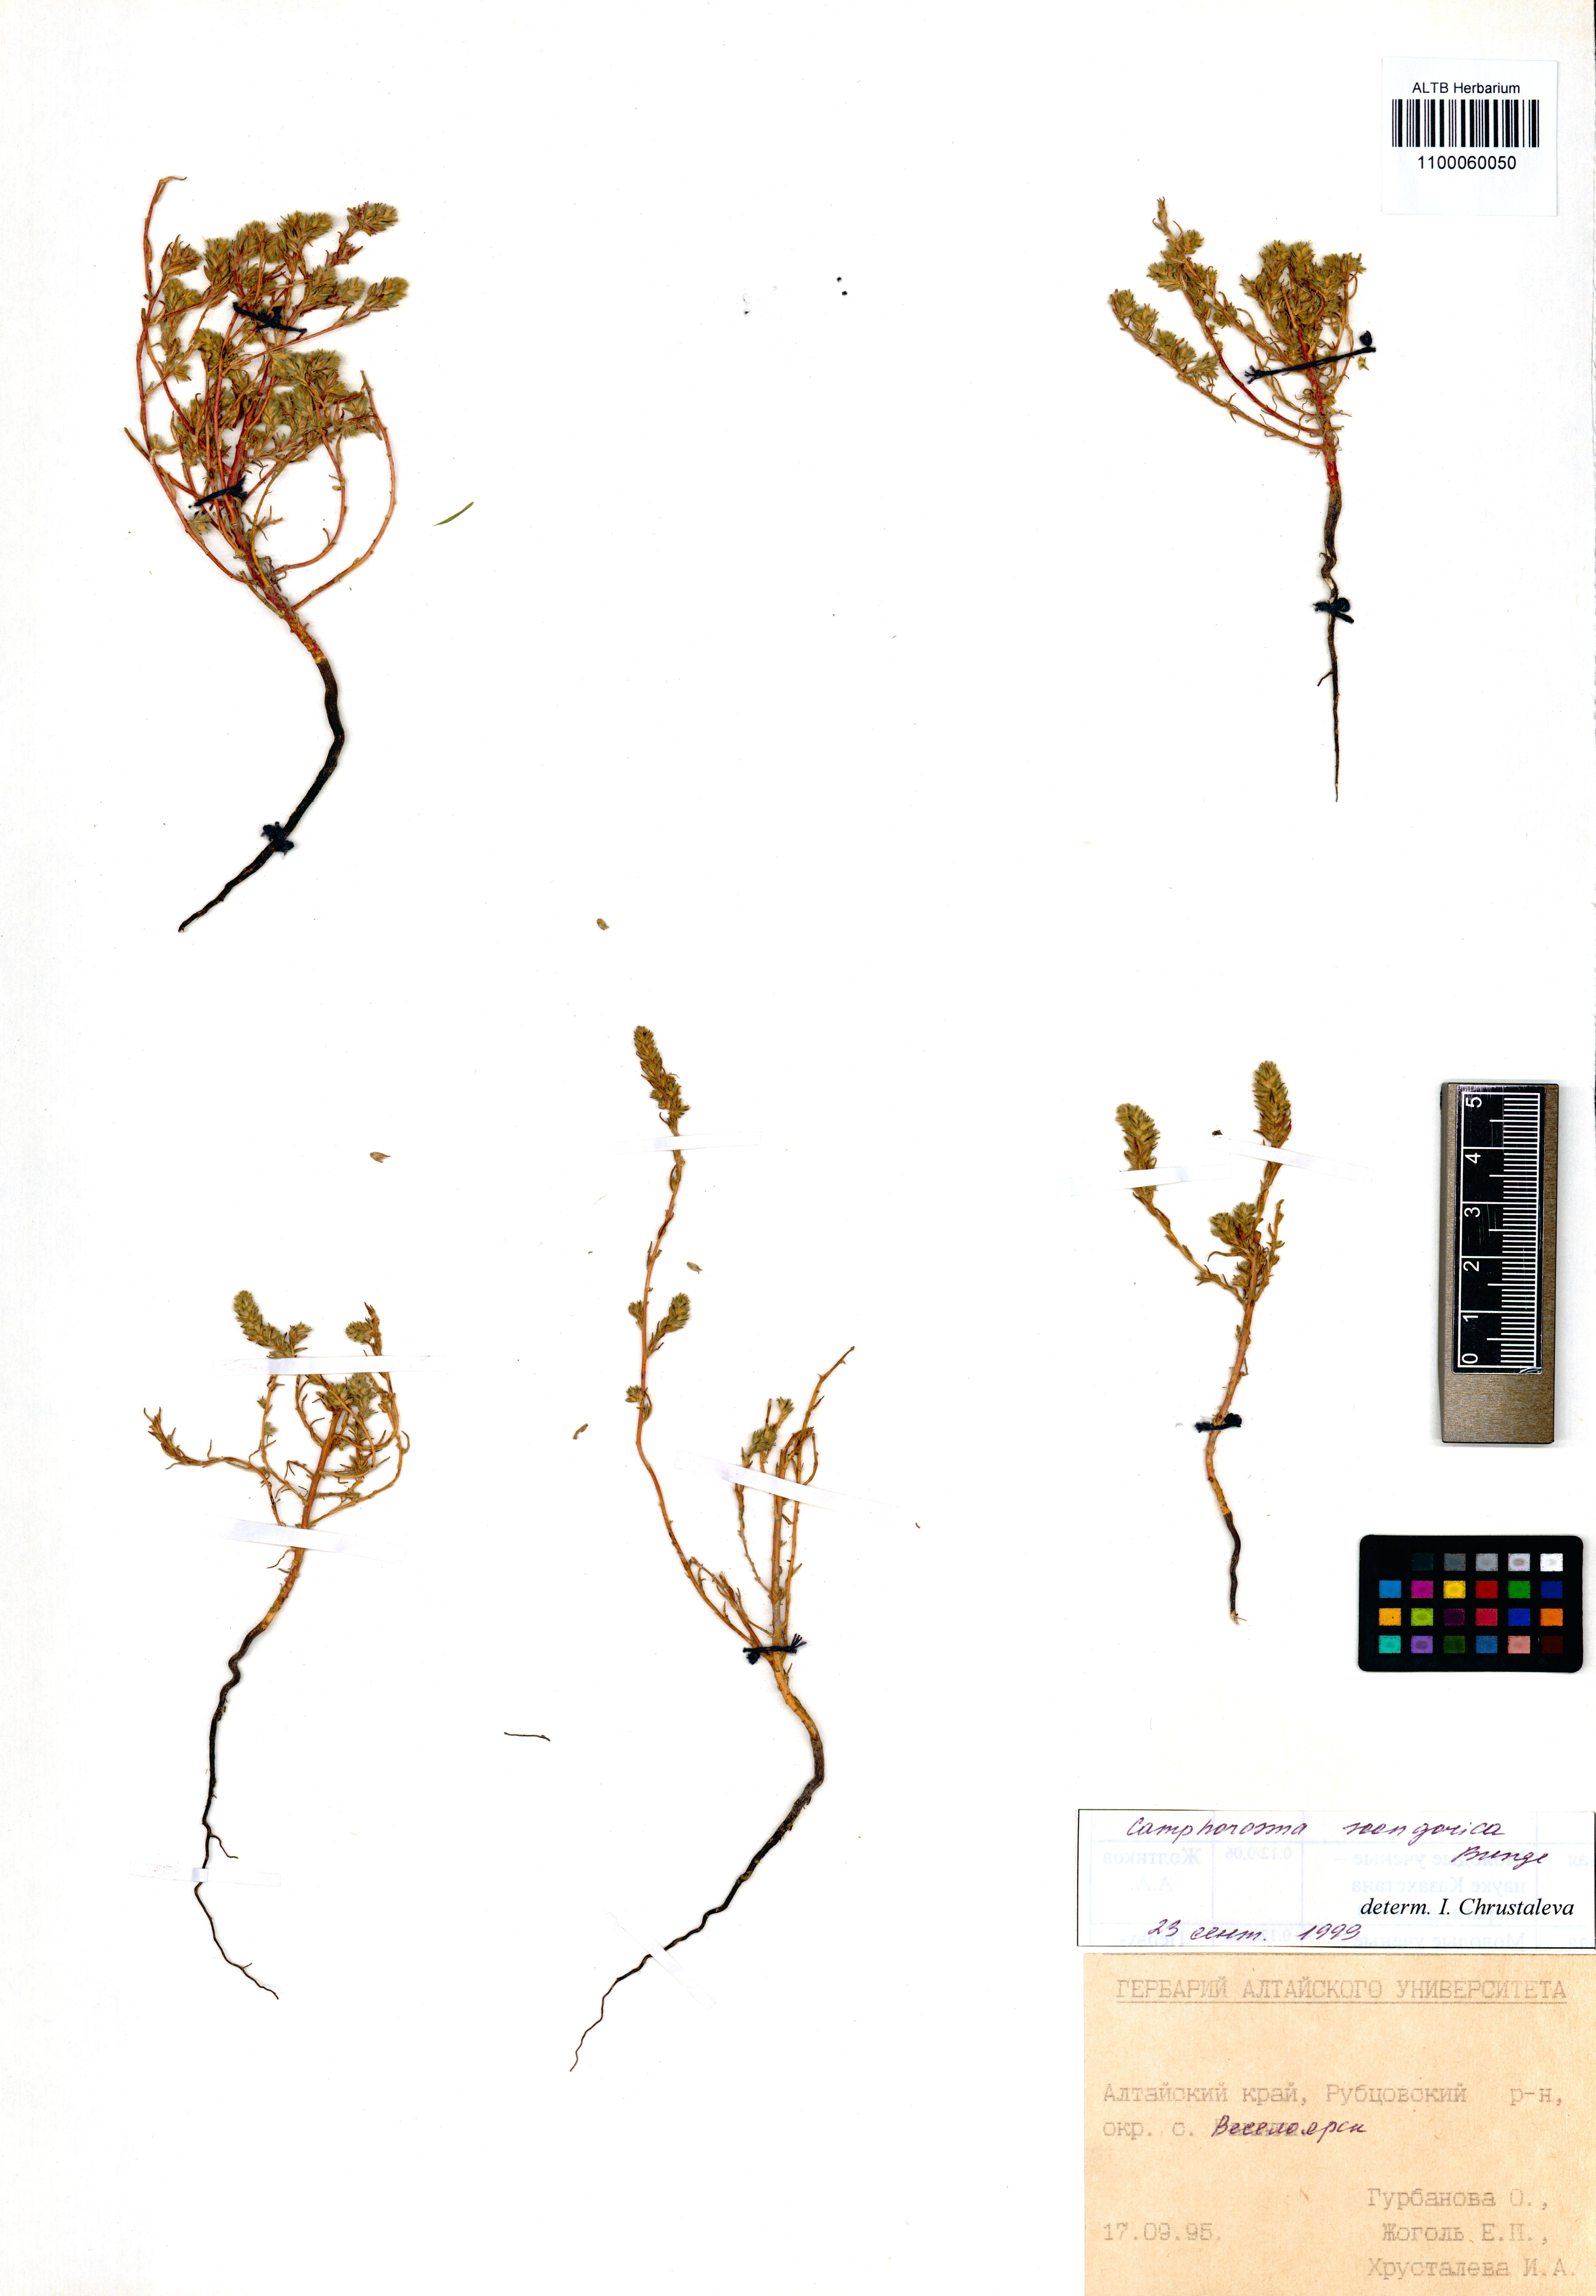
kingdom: Plantae
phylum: Tracheophyta
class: Magnoliopsida
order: Caryophyllales
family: Amaranthaceae
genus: Camphorosma
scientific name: Camphorosma songorica
